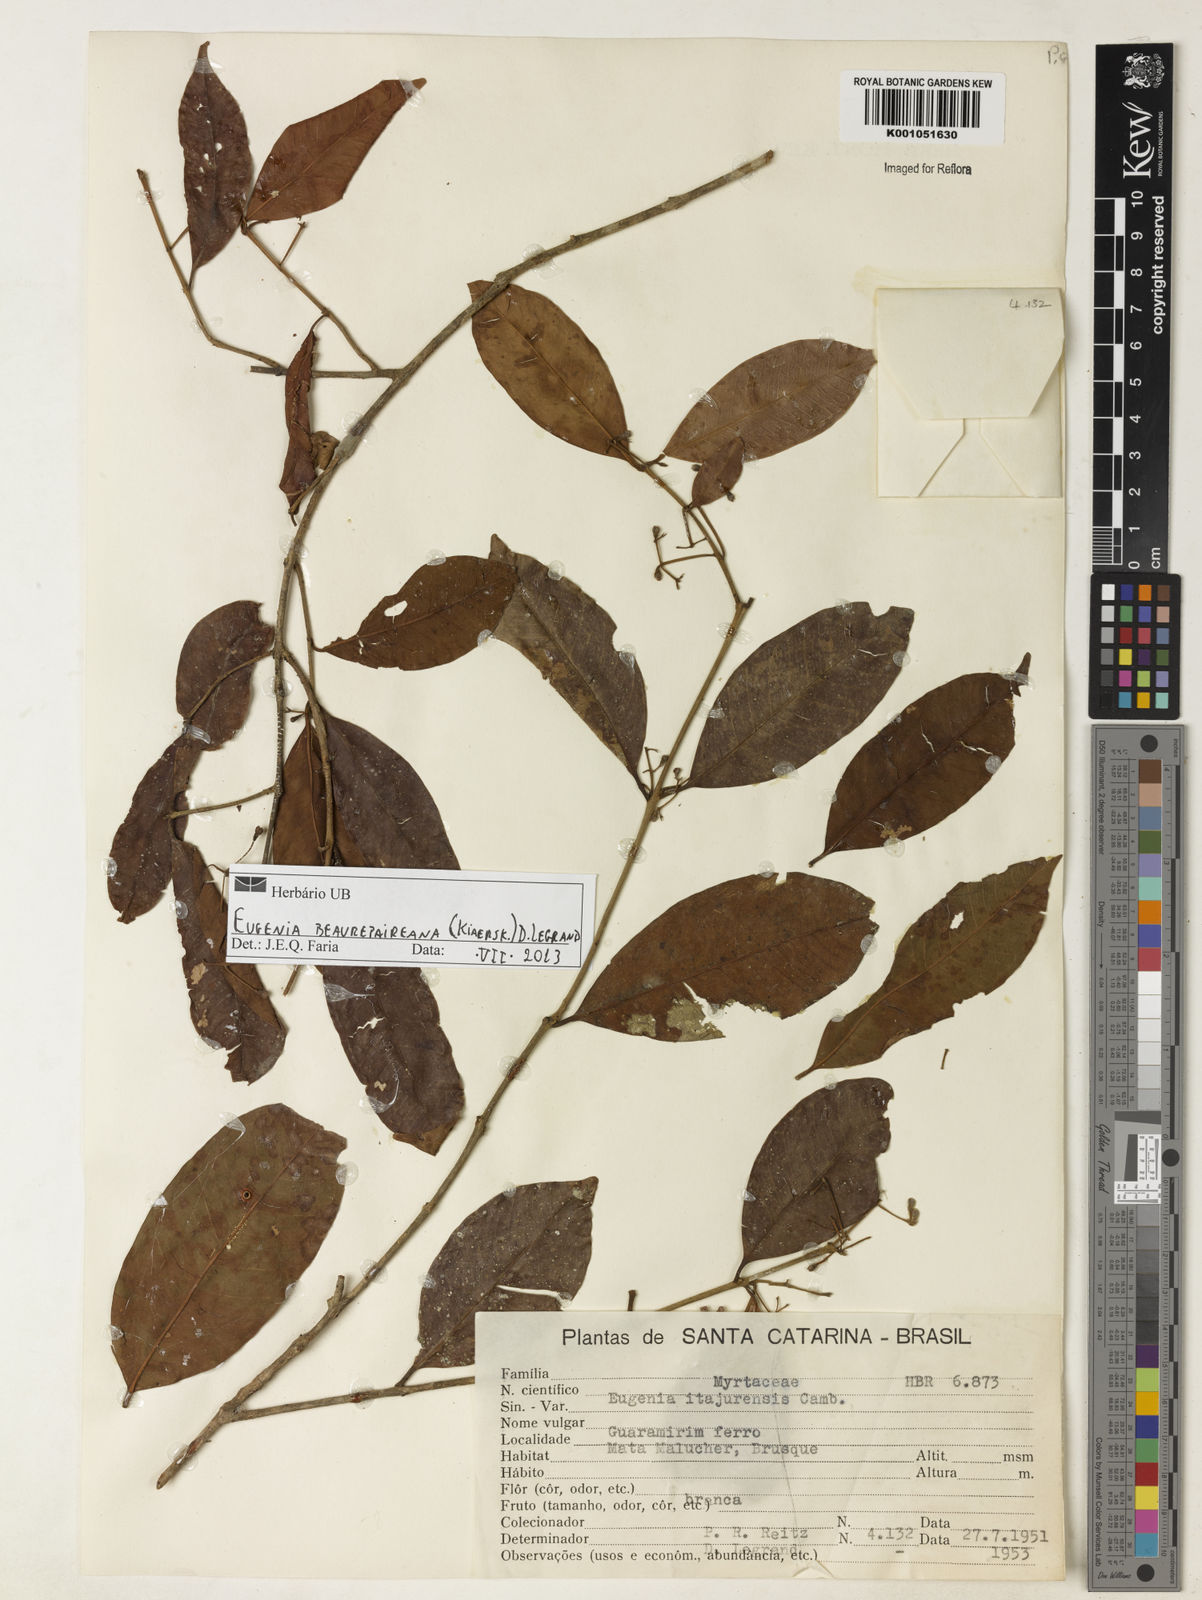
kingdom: Plantae
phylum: Tracheophyta
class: Magnoliopsida
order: Myrtales
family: Myrtaceae
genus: Eugenia
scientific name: Eugenia ternatifolia
